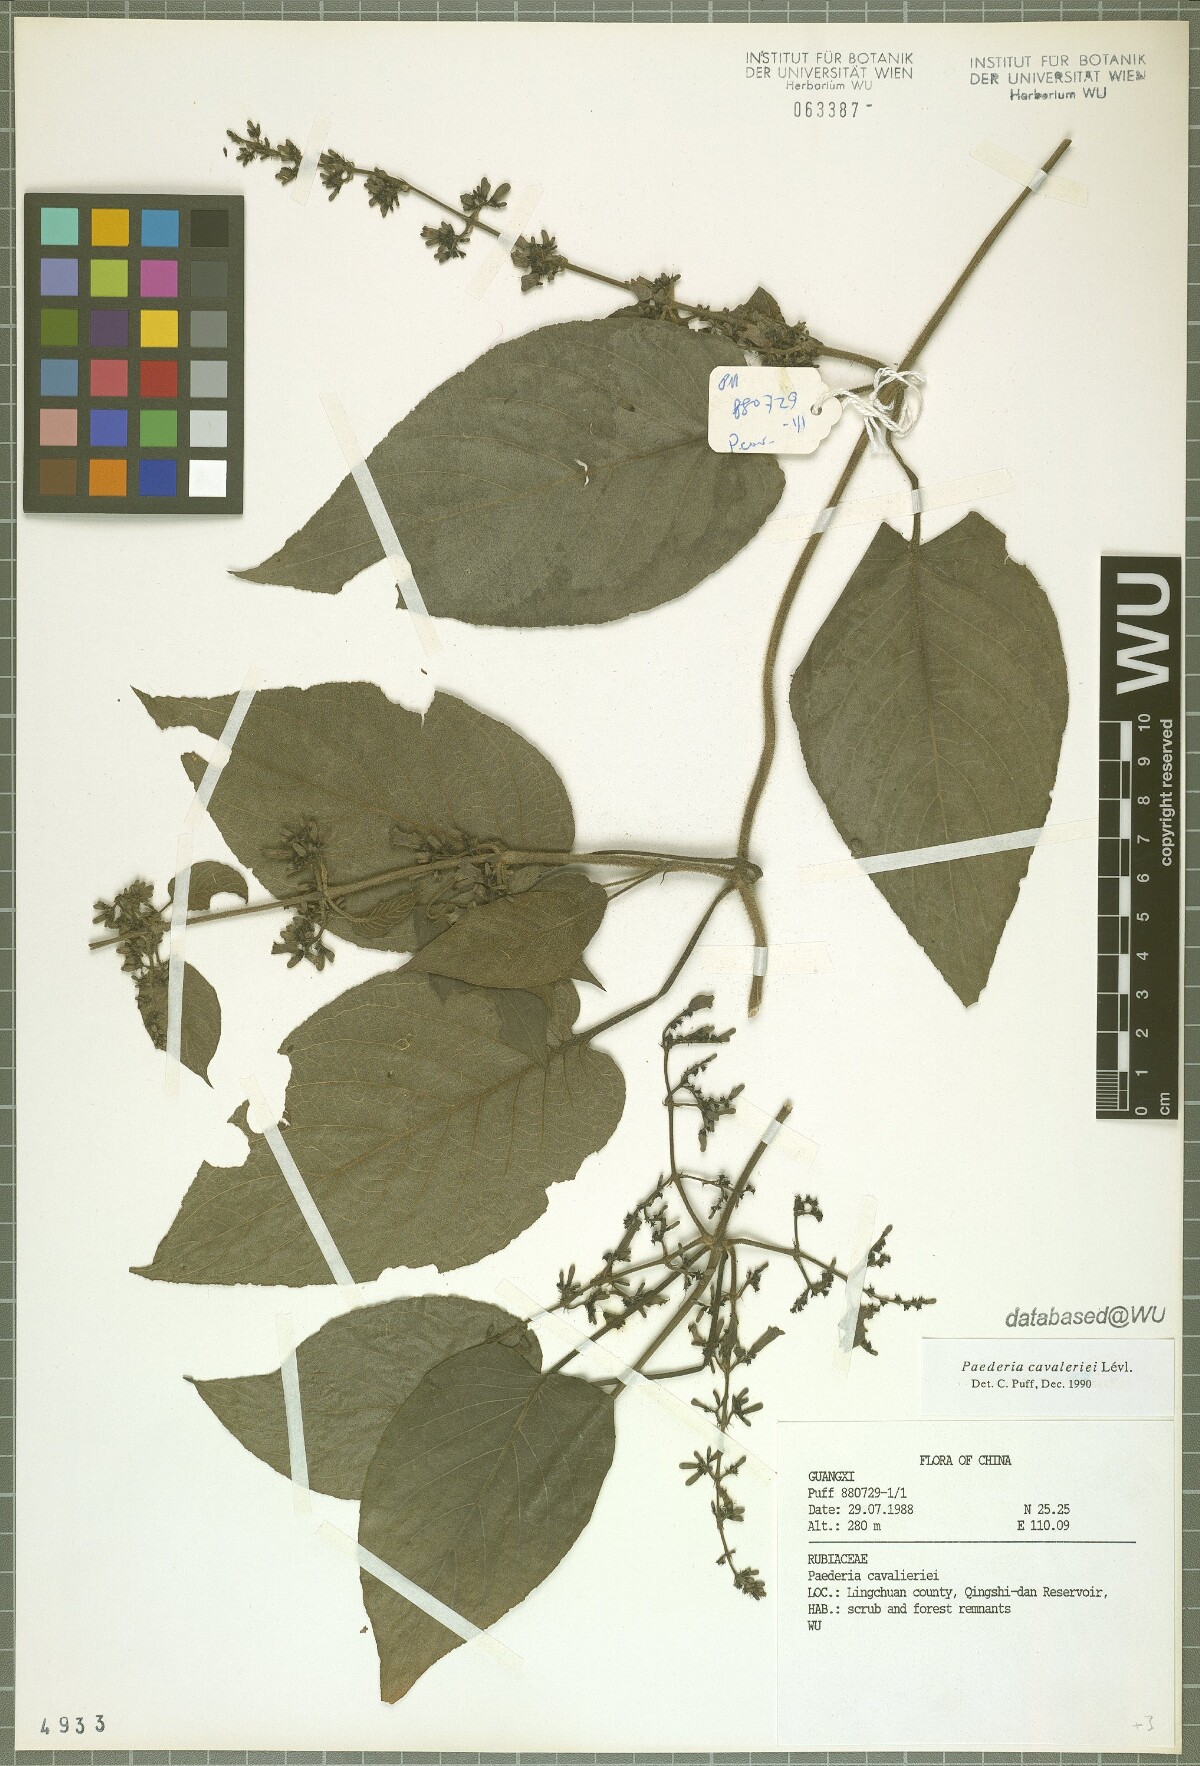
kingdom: Plantae
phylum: Tracheophyta
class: Magnoliopsida
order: Gentianales
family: Rubiaceae
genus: Paederia
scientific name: Paederia cavaleriei
